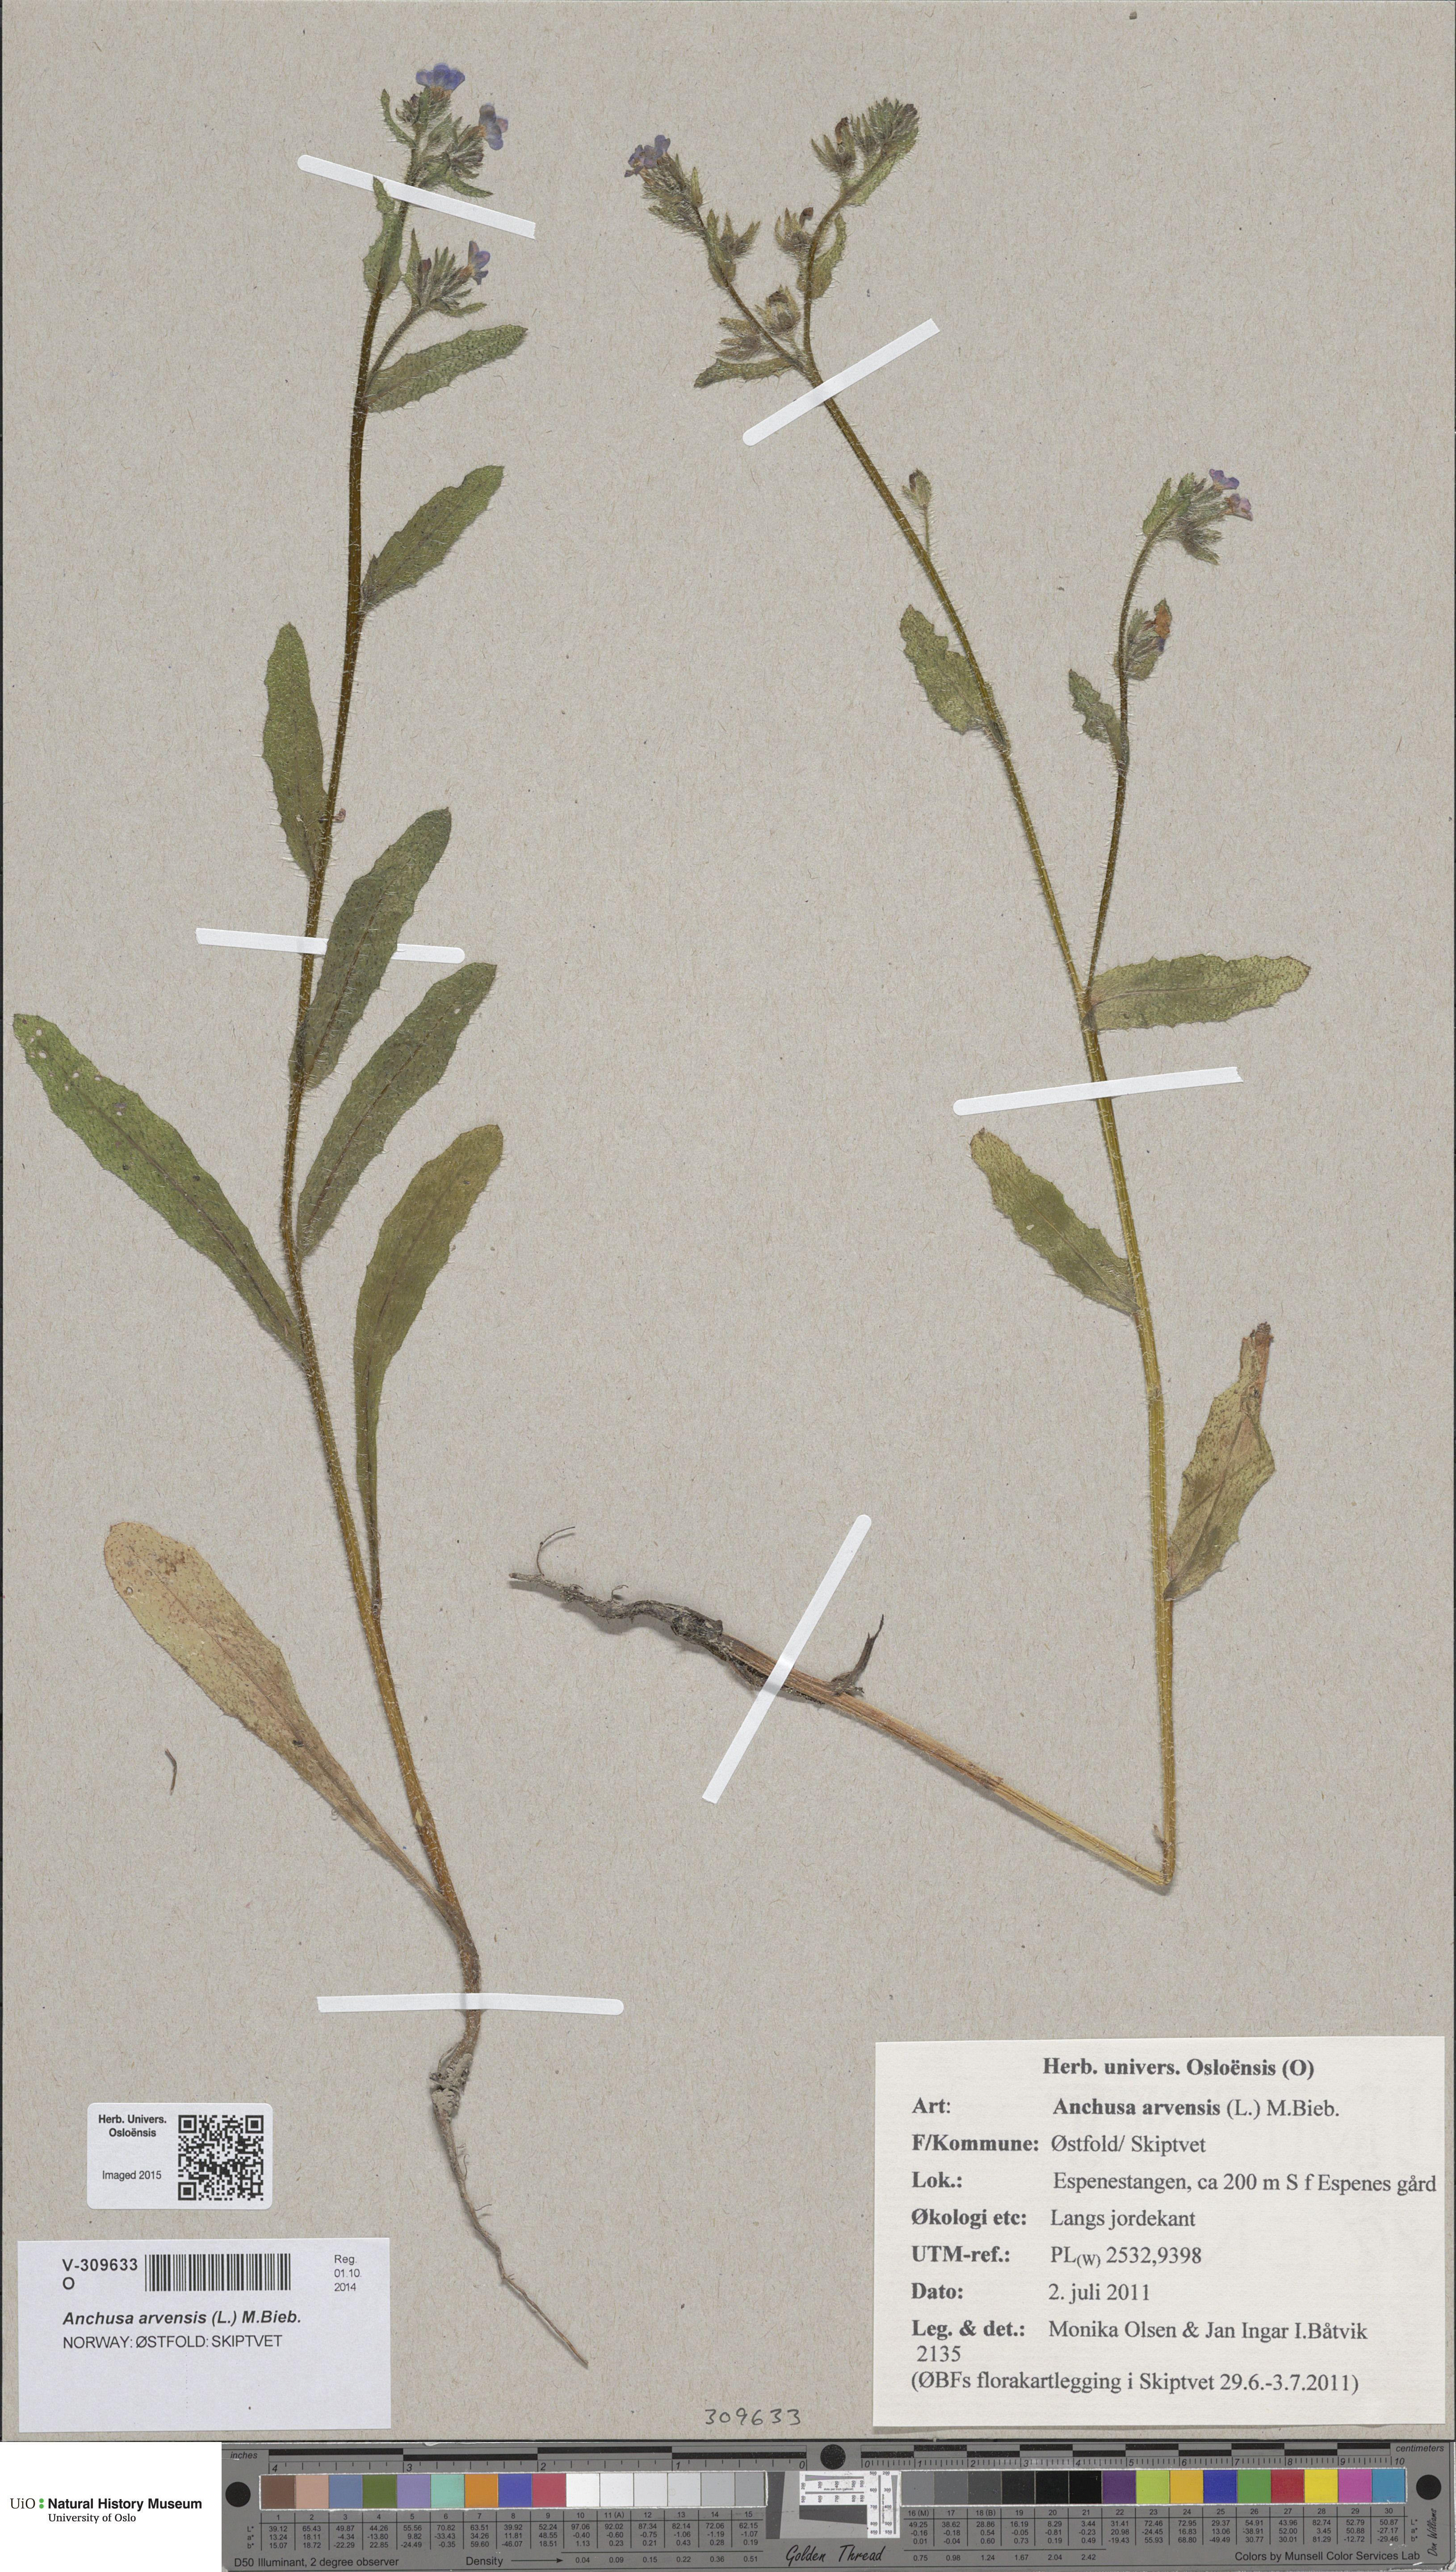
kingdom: Plantae
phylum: Tracheophyta
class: Magnoliopsida
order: Boraginales
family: Boraginaceae
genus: Lycopsis
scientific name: Lycopsis arvensis
